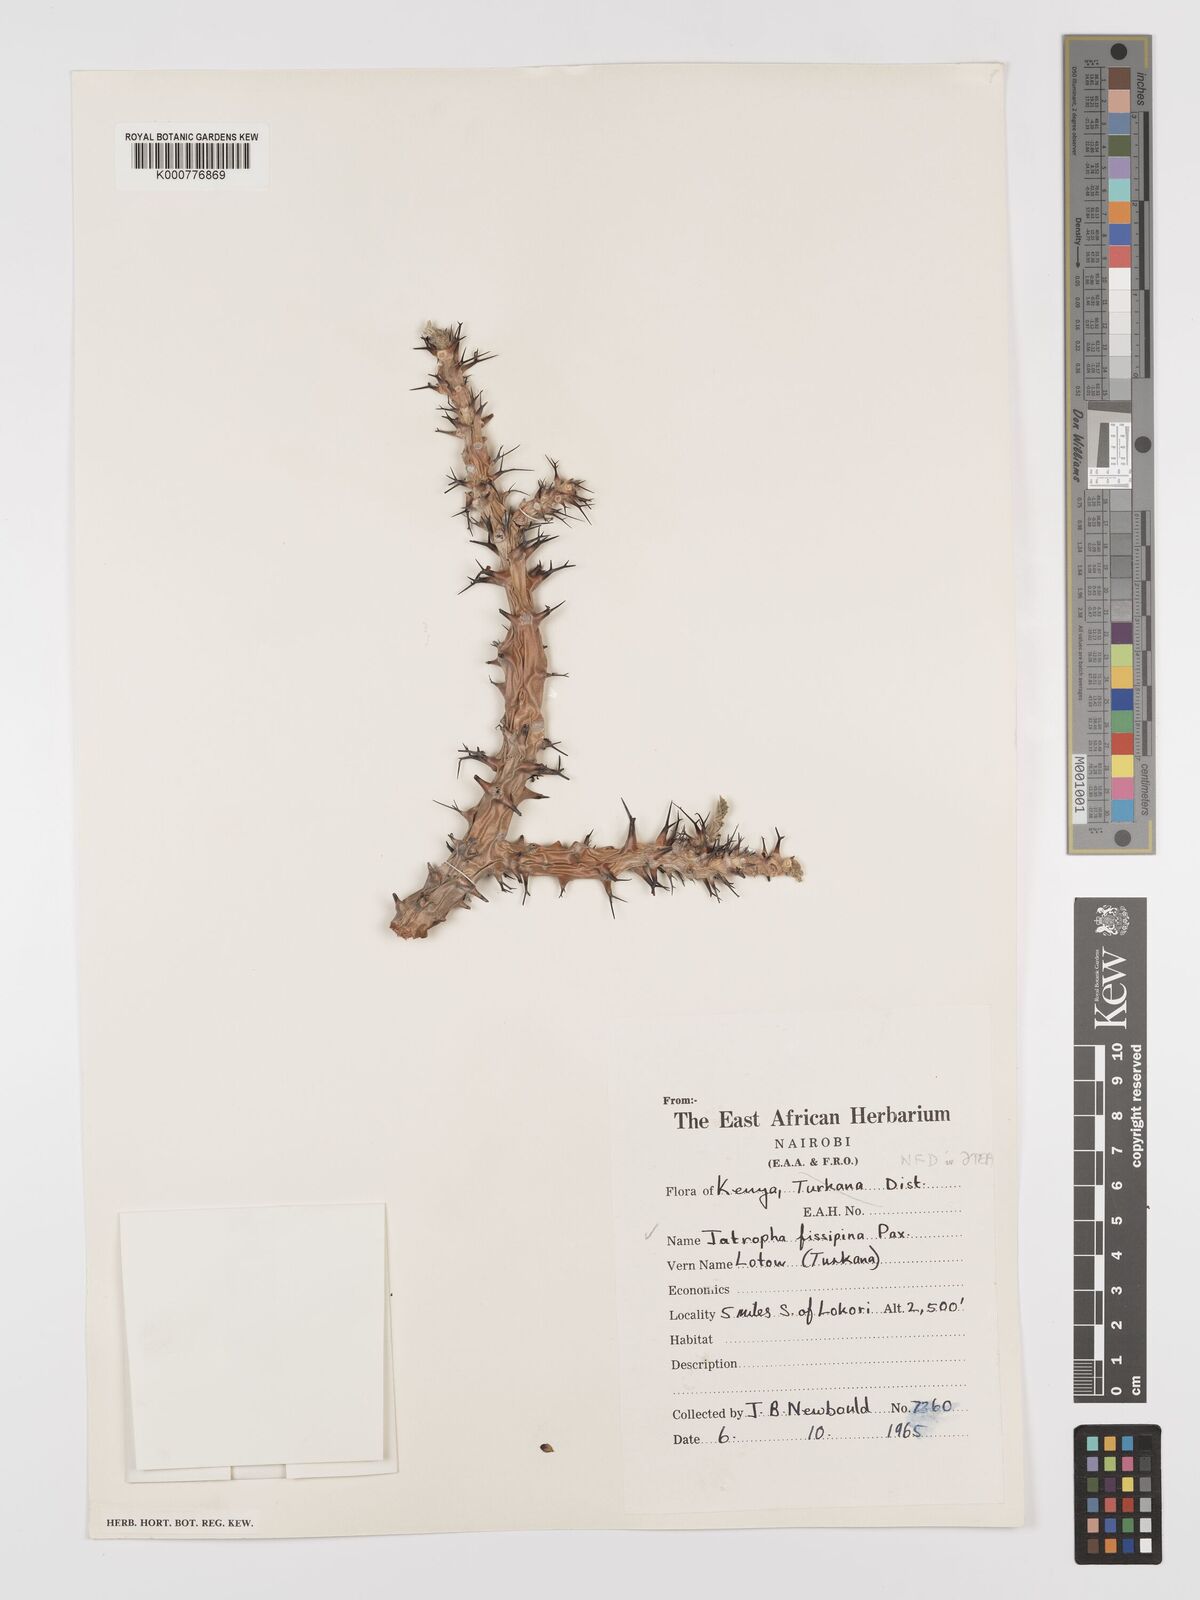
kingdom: Plantae
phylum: Tracheophyta
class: Magnoliopsida
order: Malpighiales
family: Euphorbiaceae
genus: Jatropha
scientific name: Jatropha ellenbeckii
